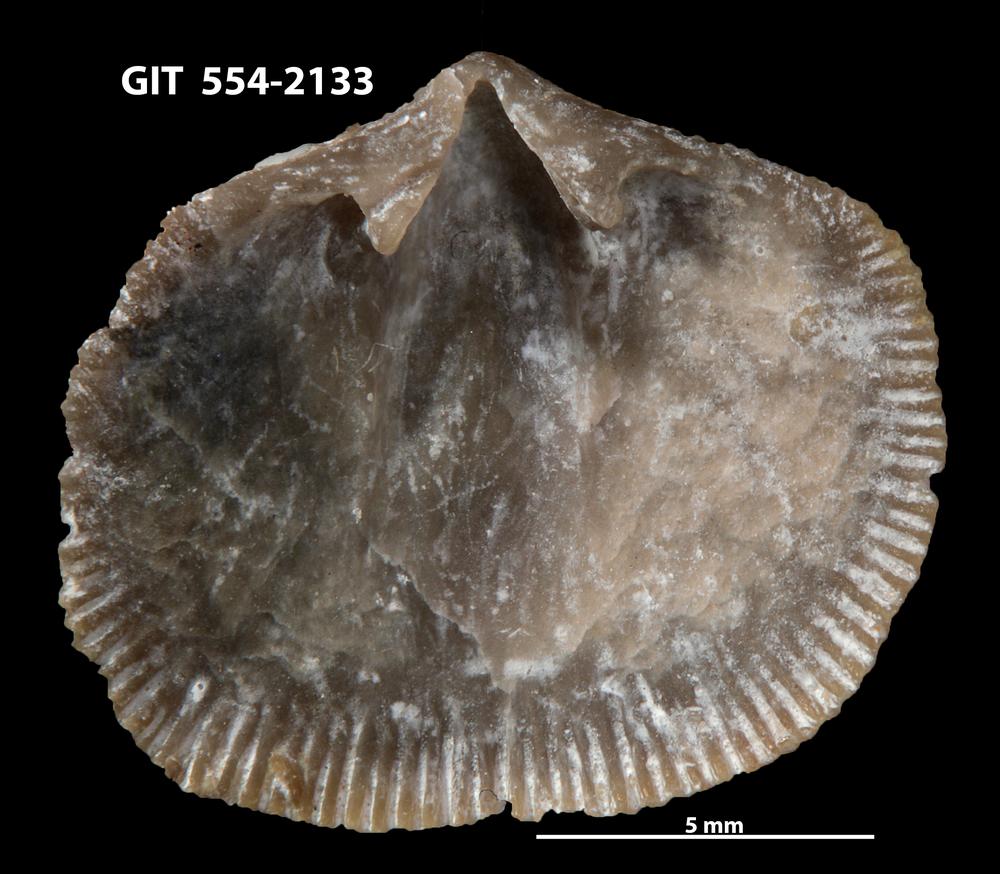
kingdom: Animalia
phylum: Brachiopoda
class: Rhynchonellata
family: Dalmanellidae
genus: Levenea
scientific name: Levenea Orthis canaliculata
